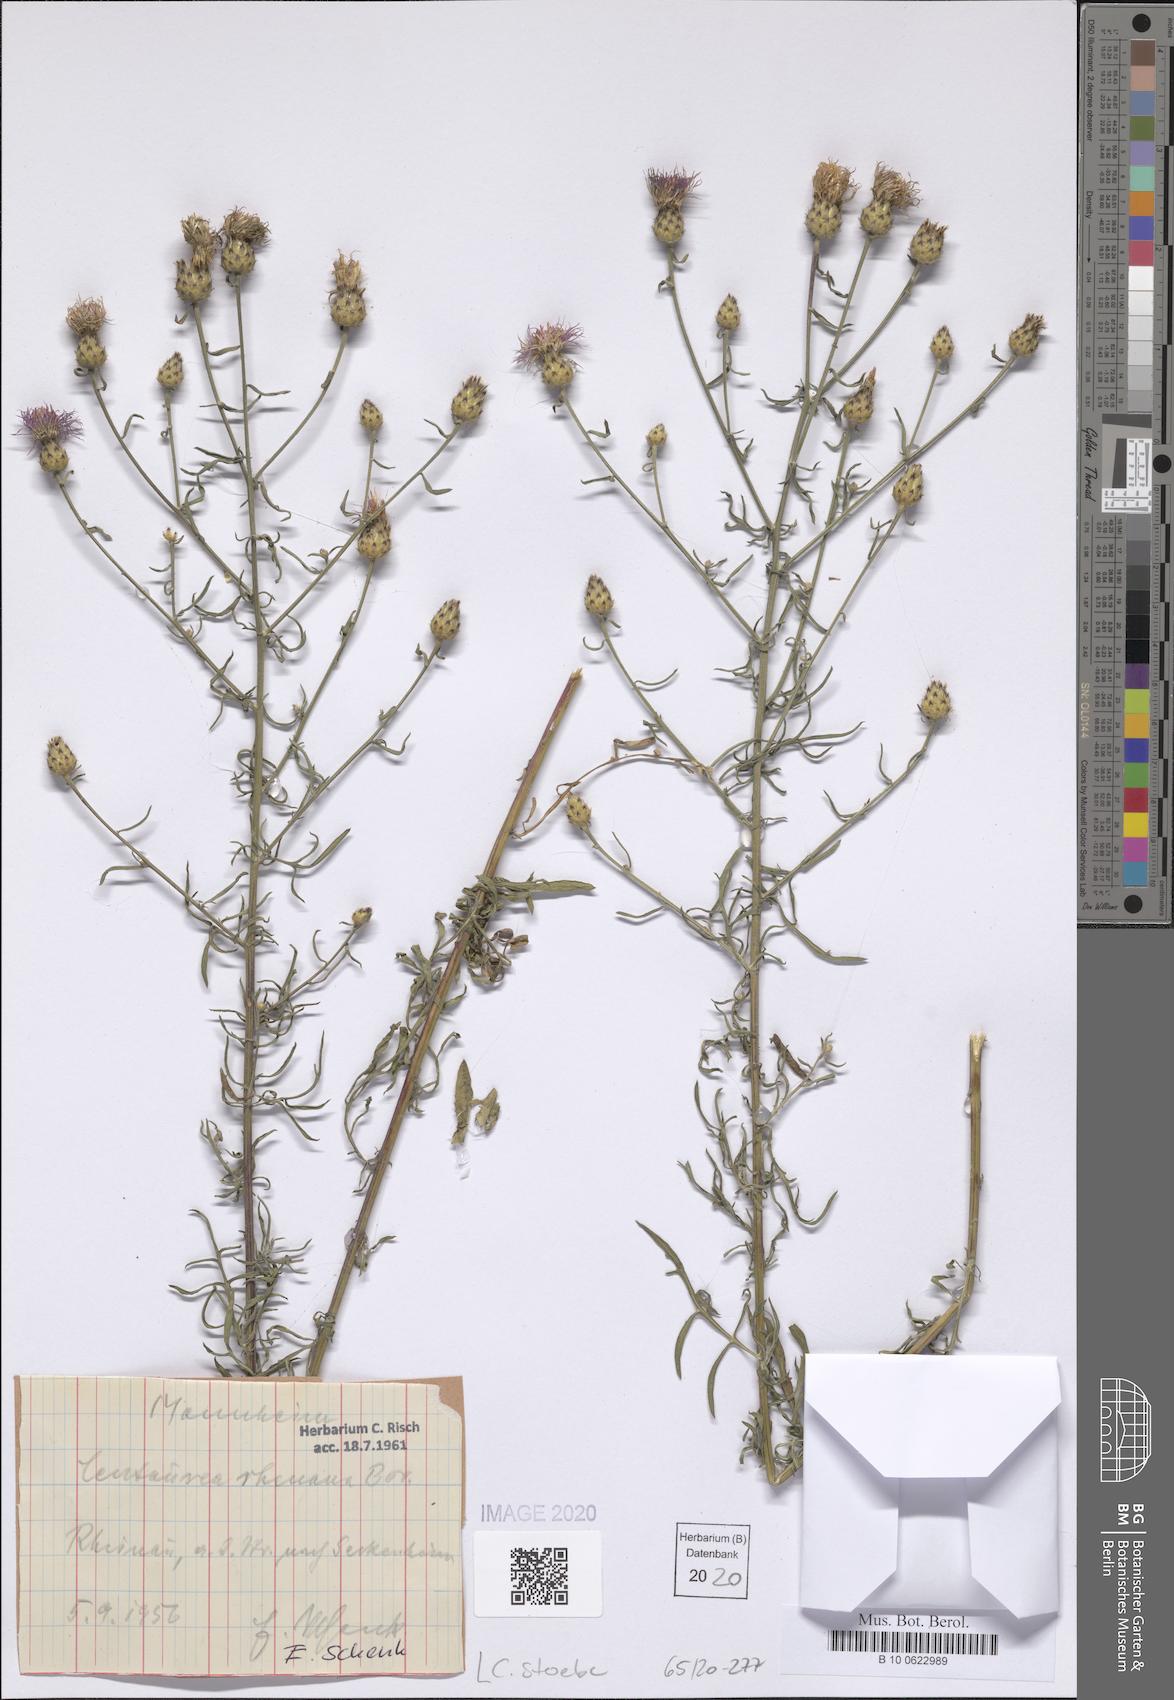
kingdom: Plantae
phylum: Tracheophyta
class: Magnoliopsida
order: Asterales
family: Asteraceae
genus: Centaurea
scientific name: Centaurea stoebe
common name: Spotted knapweed
